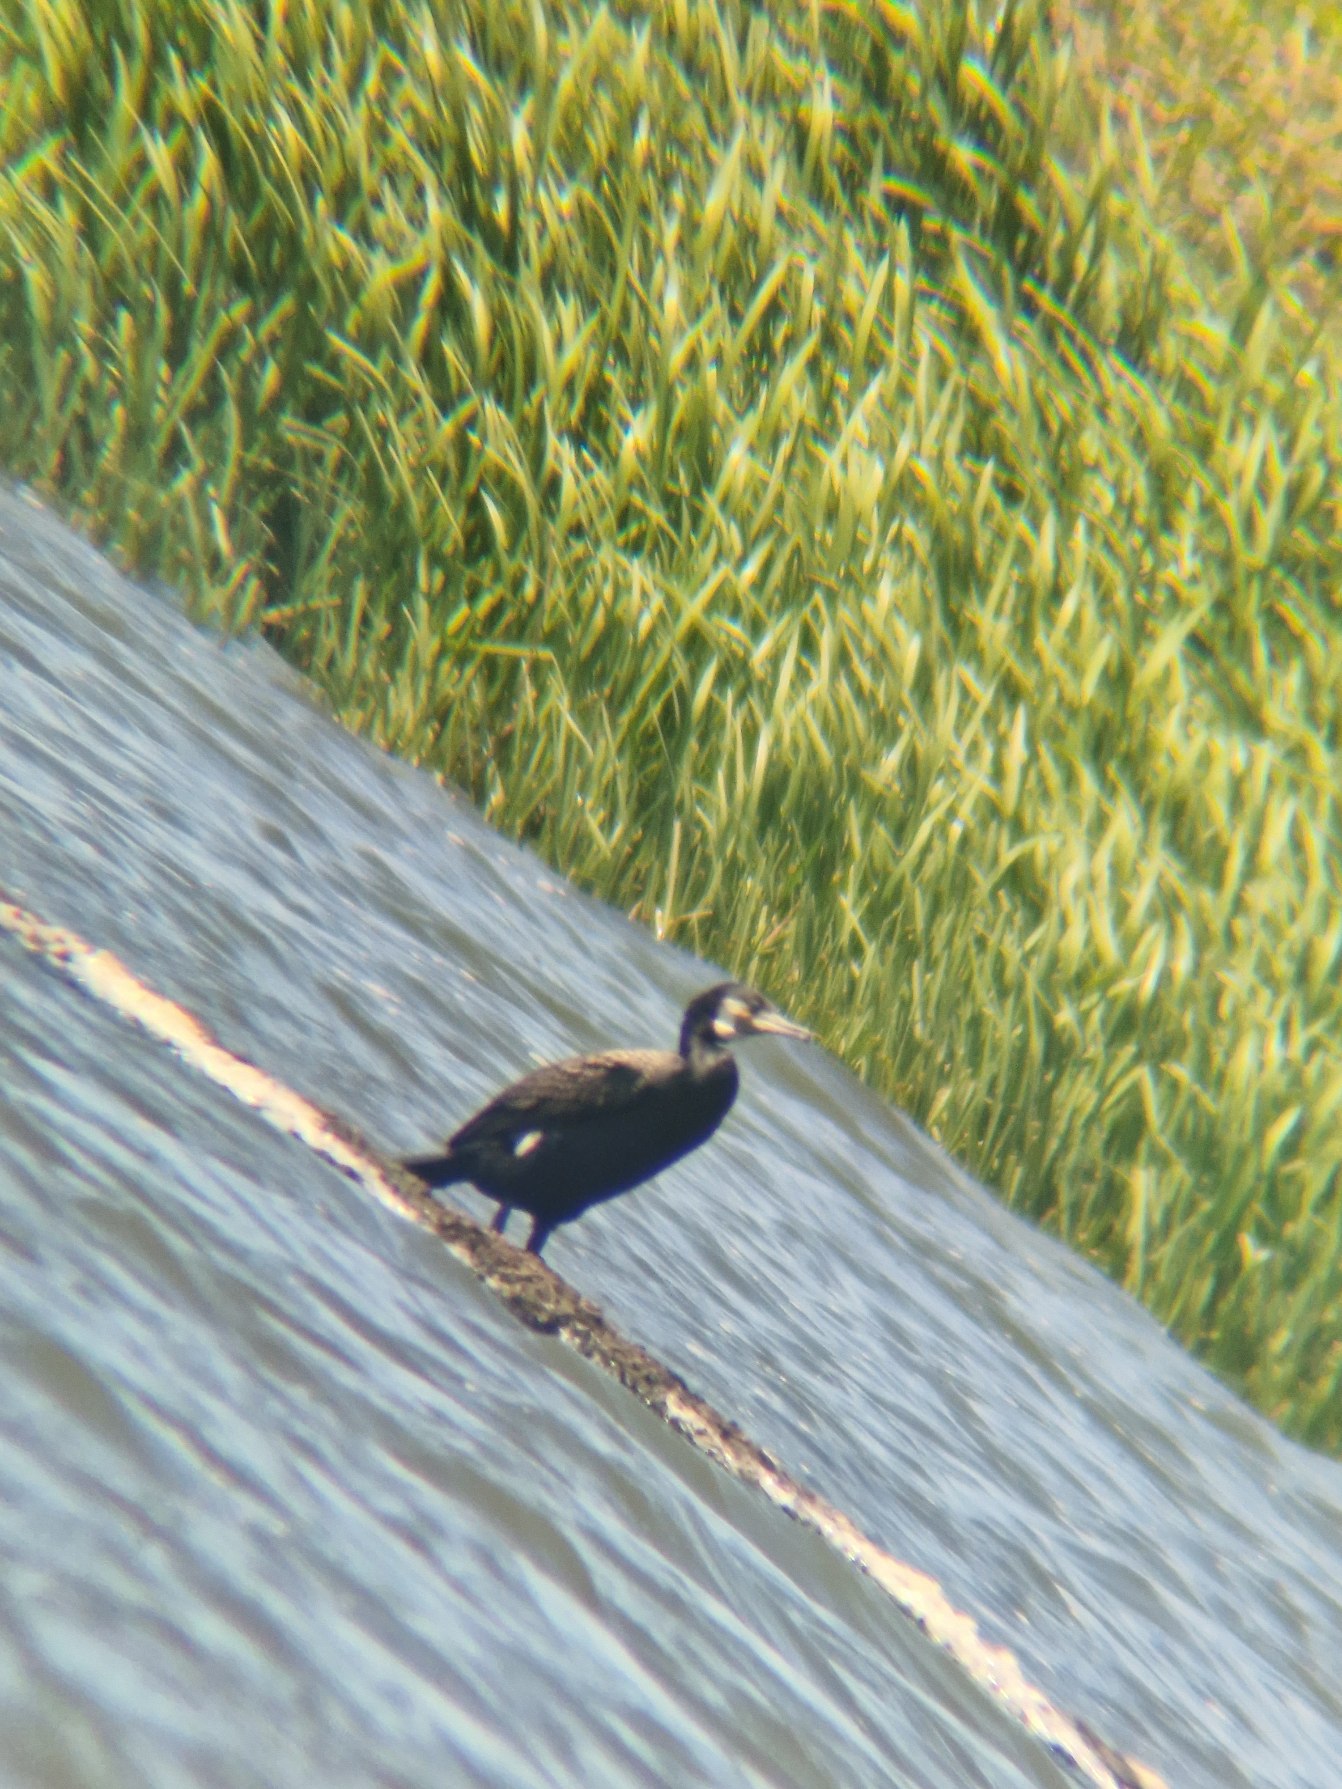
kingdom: Animalia
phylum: Chordata
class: Aves
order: Suliformes
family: Phalacrocoracidae
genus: Phalacrocorax
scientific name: Phalacrocorax carbo
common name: Skarv
